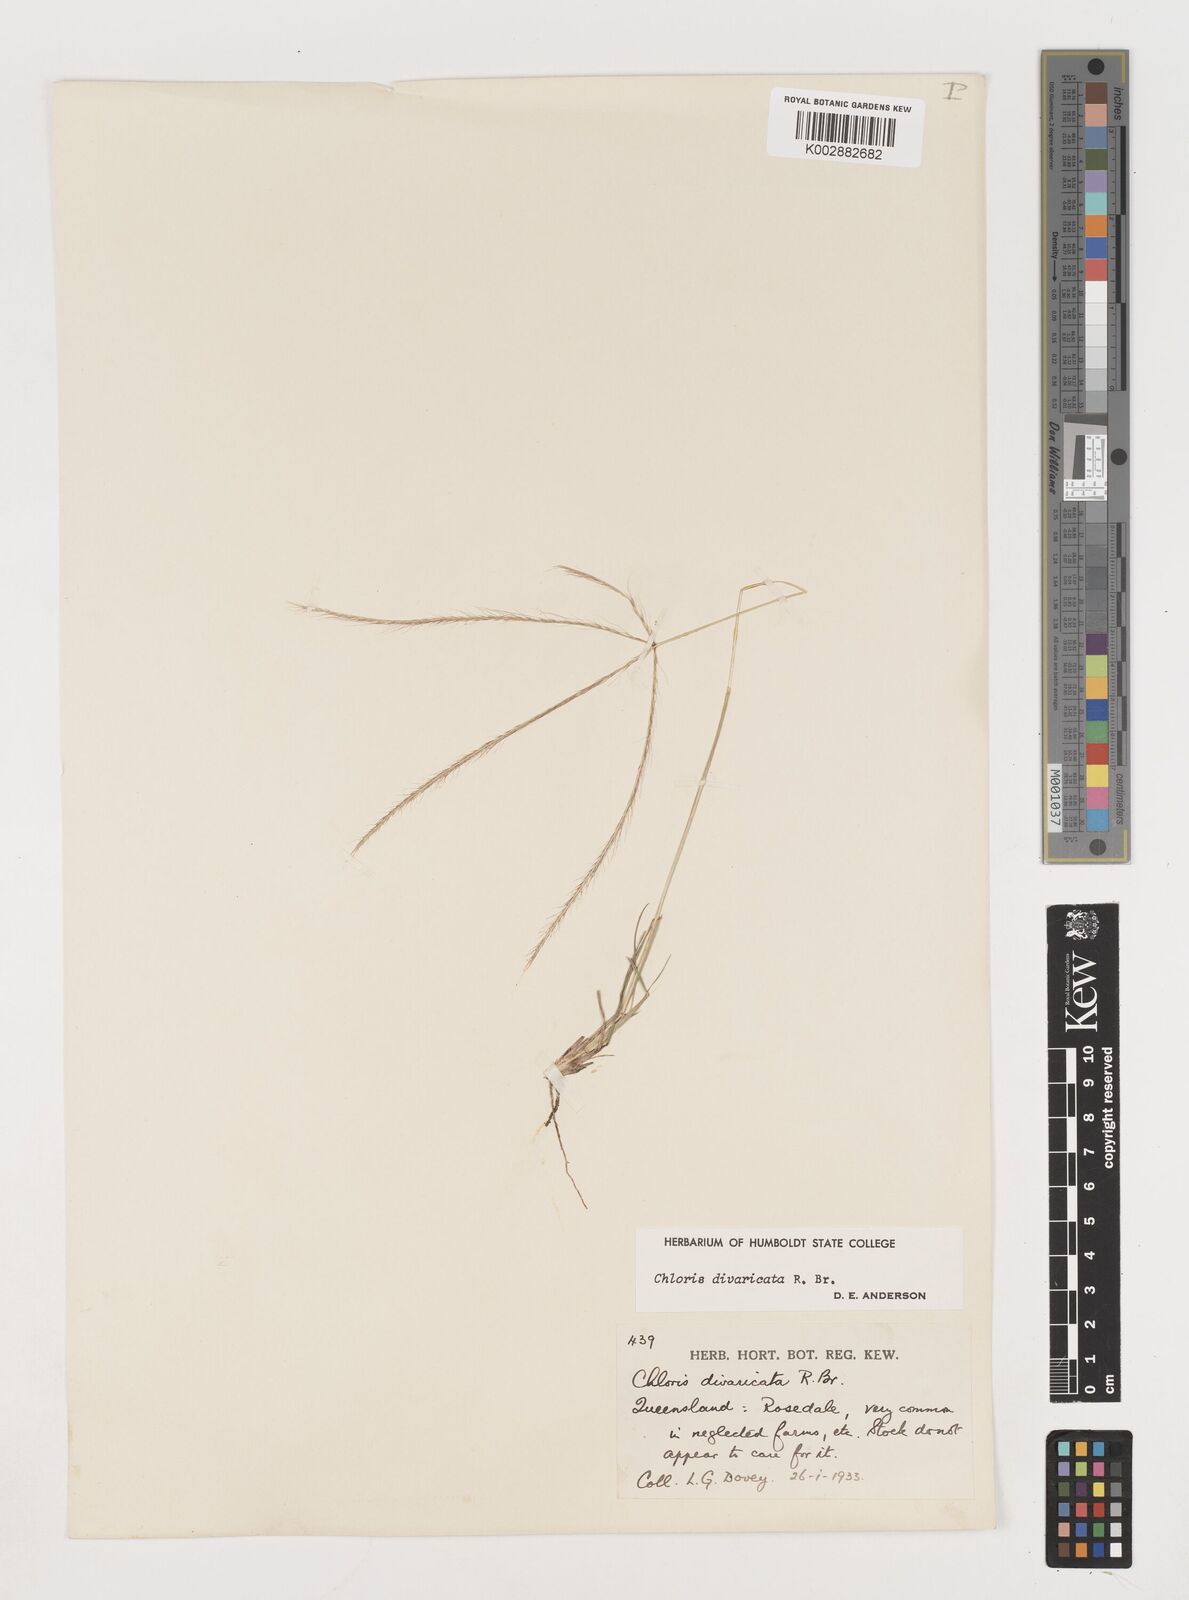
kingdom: Plantae
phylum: Tracheophyta
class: Liliopsida
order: Poales
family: Poaceae
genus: Chloris
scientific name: Chloris divaricata
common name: Spreading windmill grass
